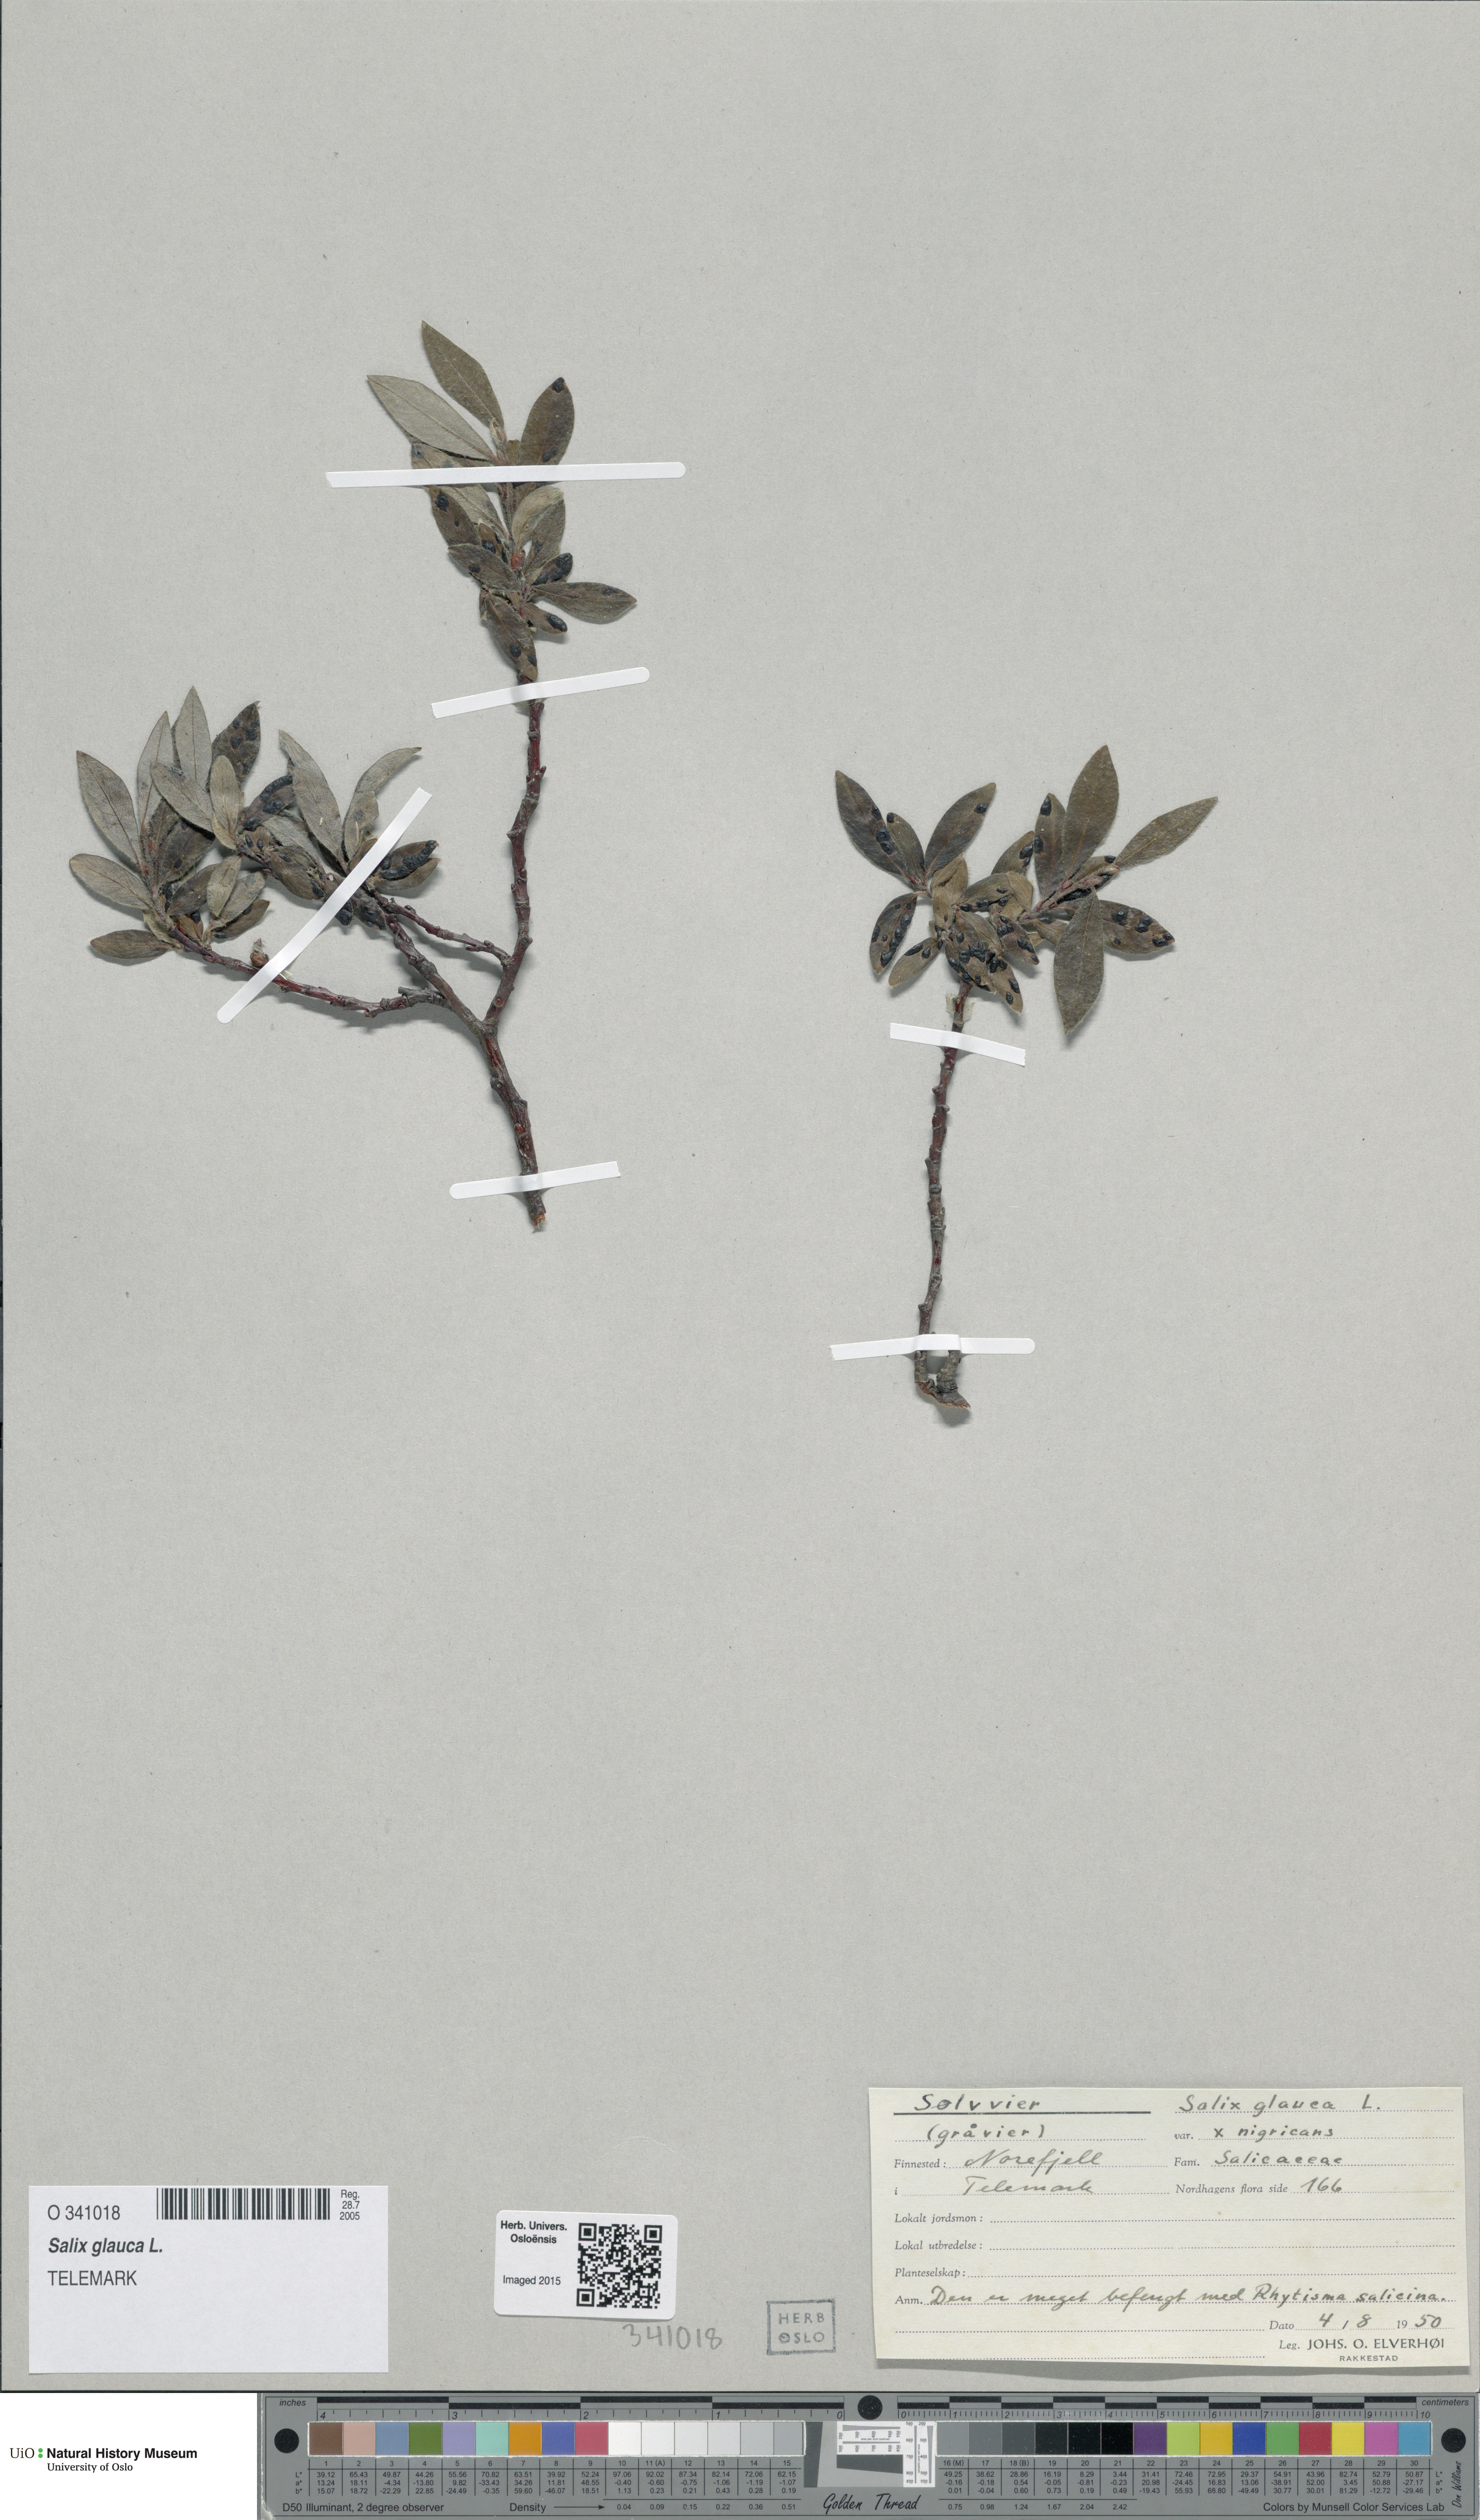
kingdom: Plantae
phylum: Tracheophyta
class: Magnoliopsida
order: Malpighiales
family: Salicaceae
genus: Salix
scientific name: Salix glauca
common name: Glaucous willow
